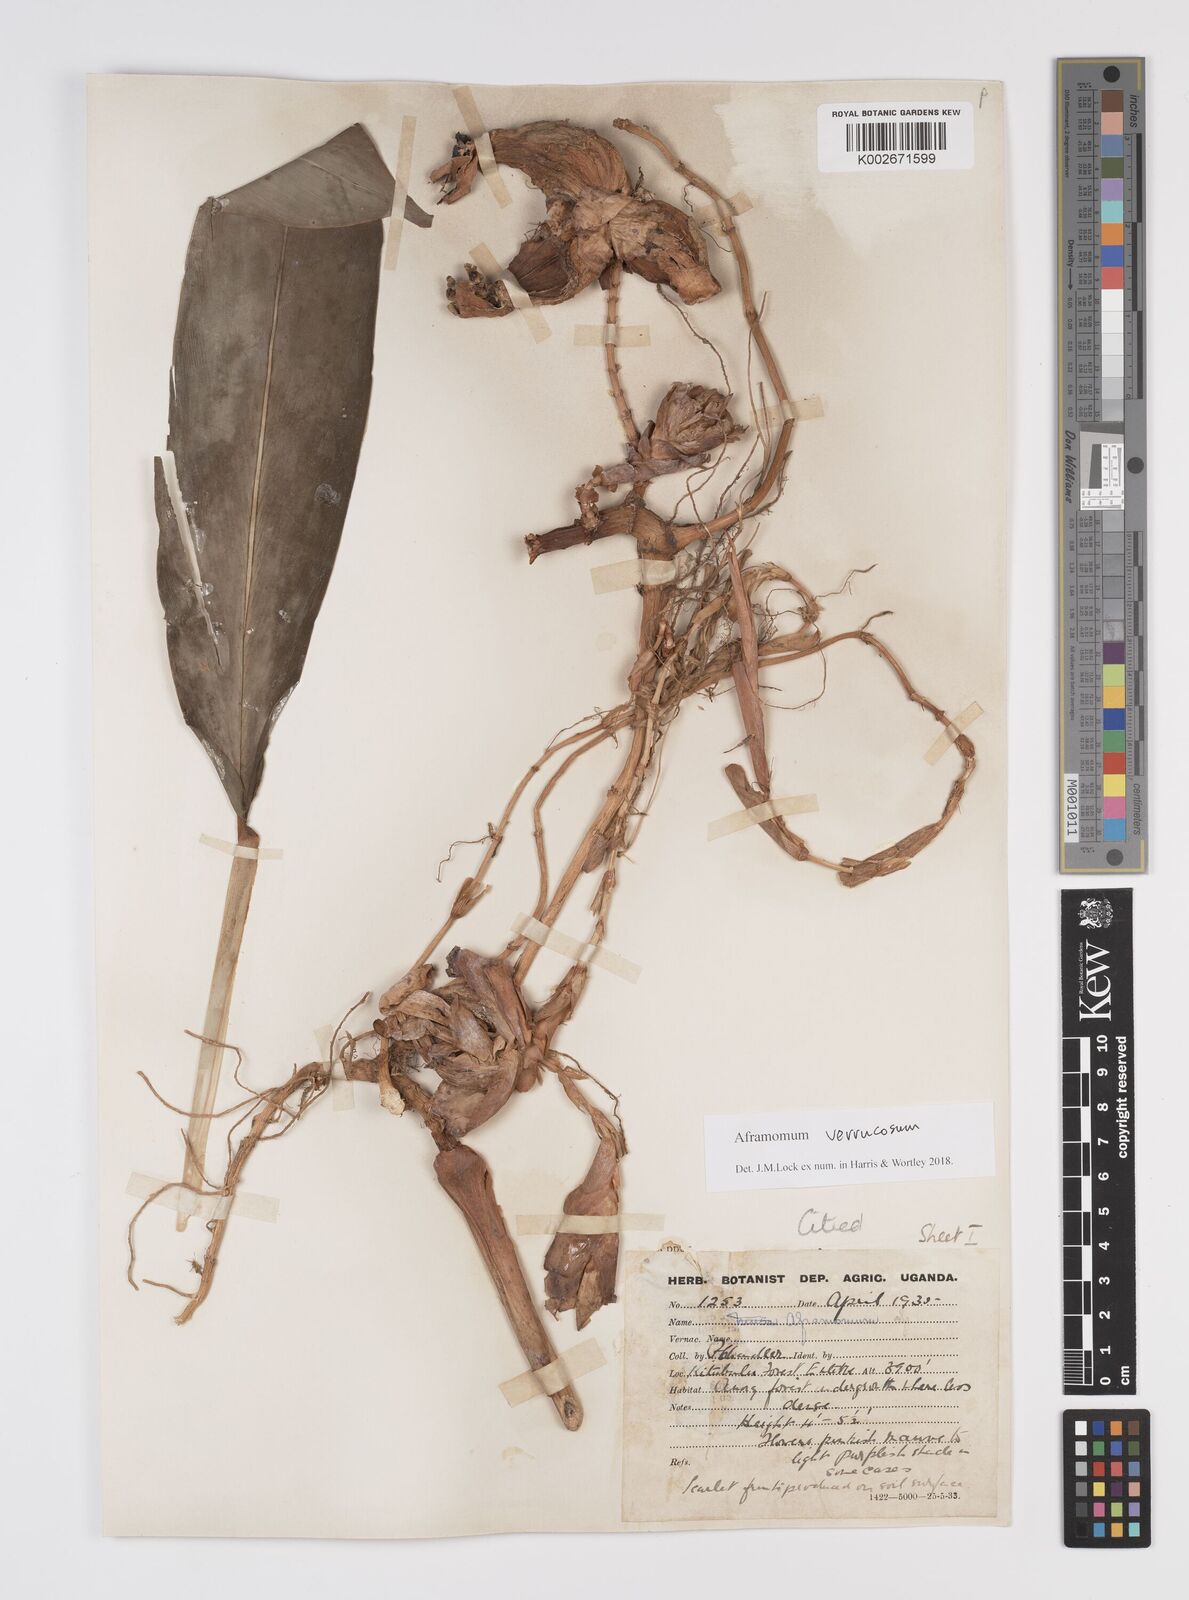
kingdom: Plantae
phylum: Tracheophyta
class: Liliopsida
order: Zingiberales
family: Zingiberaceae
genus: Aframomum
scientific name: Aframomum verrucosum
